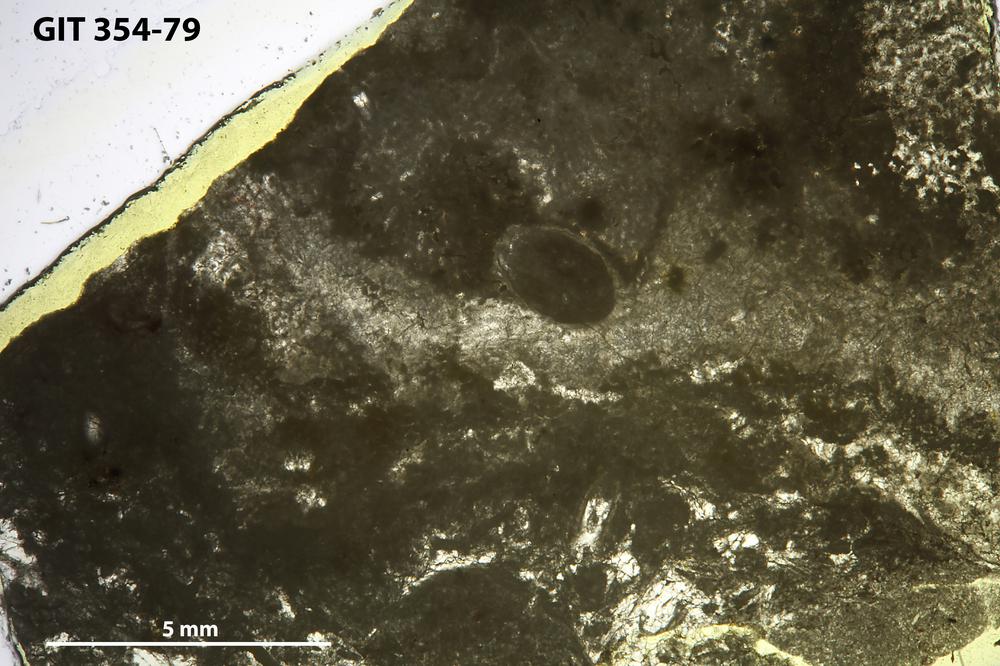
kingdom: Animalia
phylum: Porifera
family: Ecclimadictyidae
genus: Ecclimadictyon
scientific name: Ecclimadictyon porkuni
